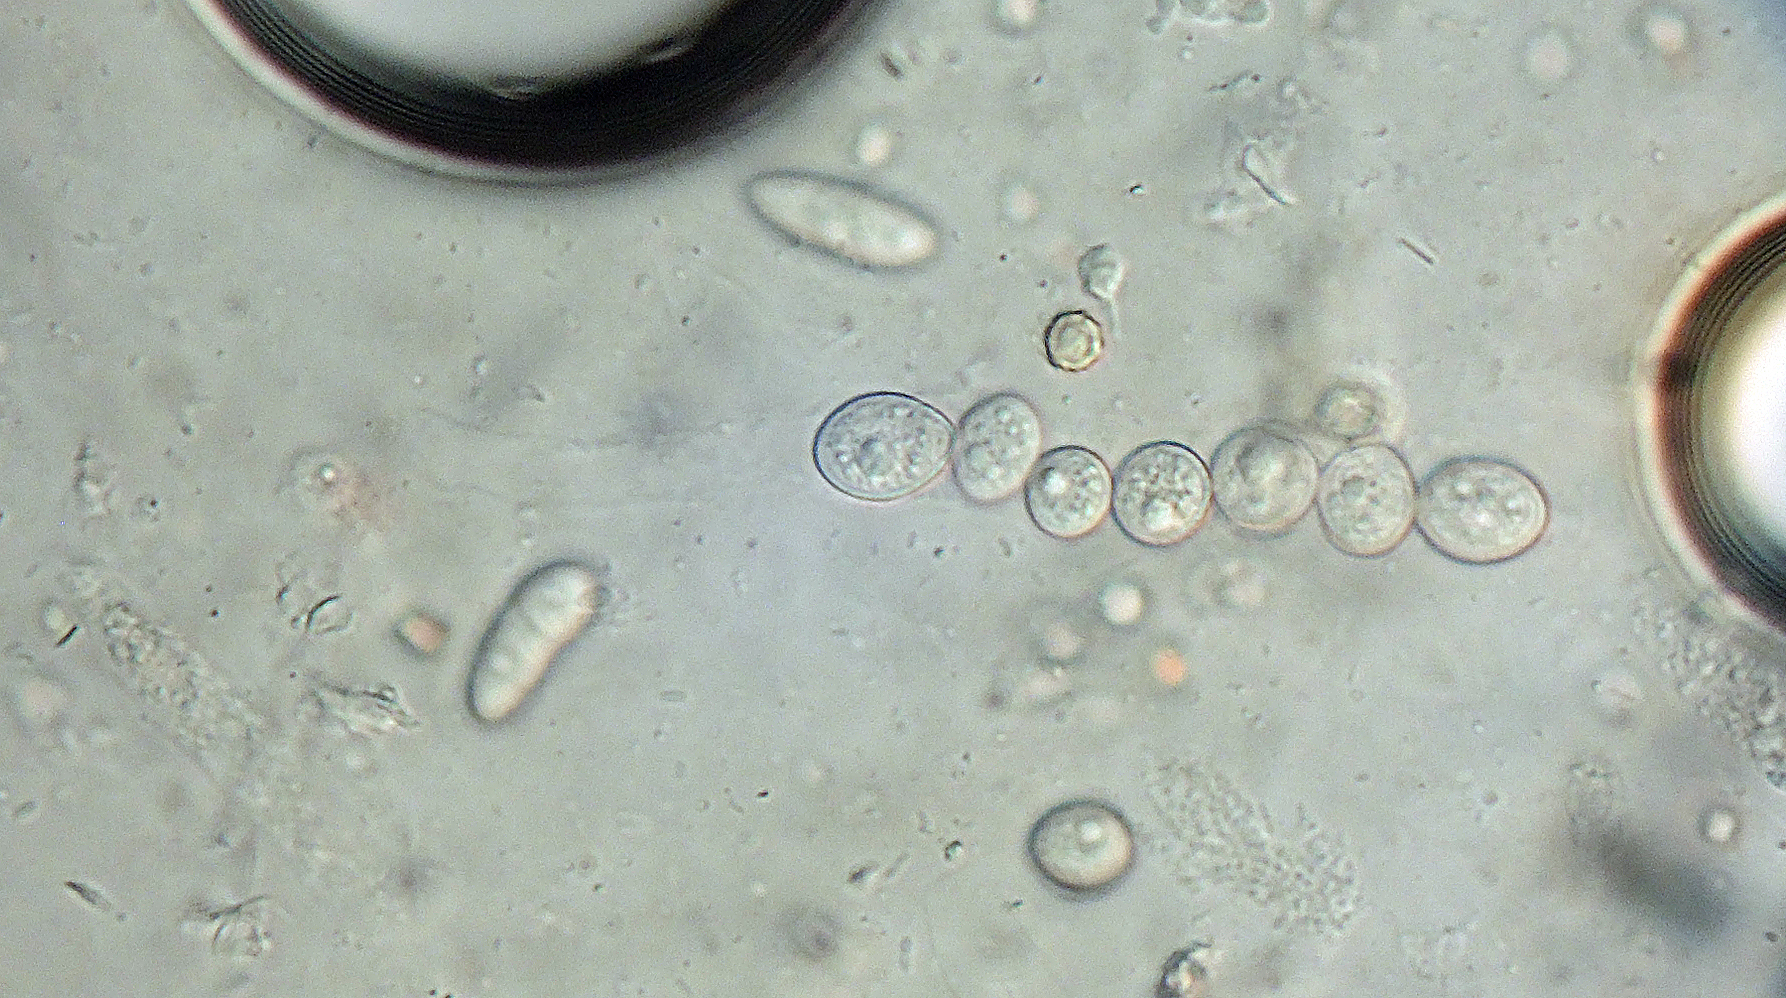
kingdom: Fungi
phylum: Ascomycota
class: Sordariomycetes
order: Hypocreales
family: Bionectriaceae
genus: Bionectria
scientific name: Bionectria ralfsii
